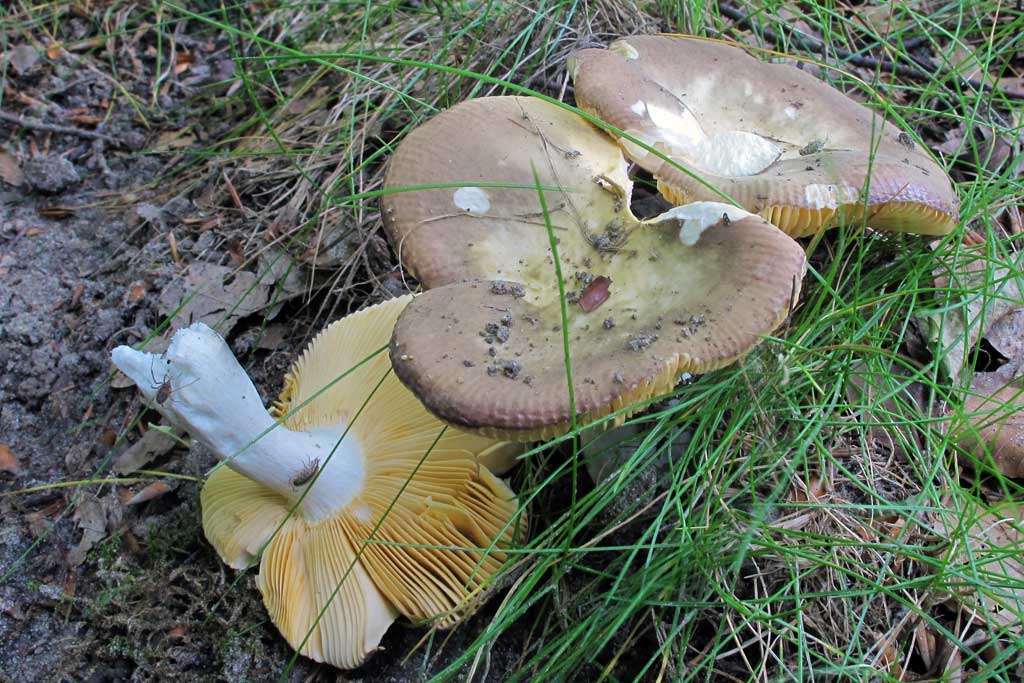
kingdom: Fungi
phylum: Basidiomycota
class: Agaricomycetes
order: Russulales
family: Russulaceae
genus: Russula
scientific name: Russula veternosa
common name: blødkødet skørhat
